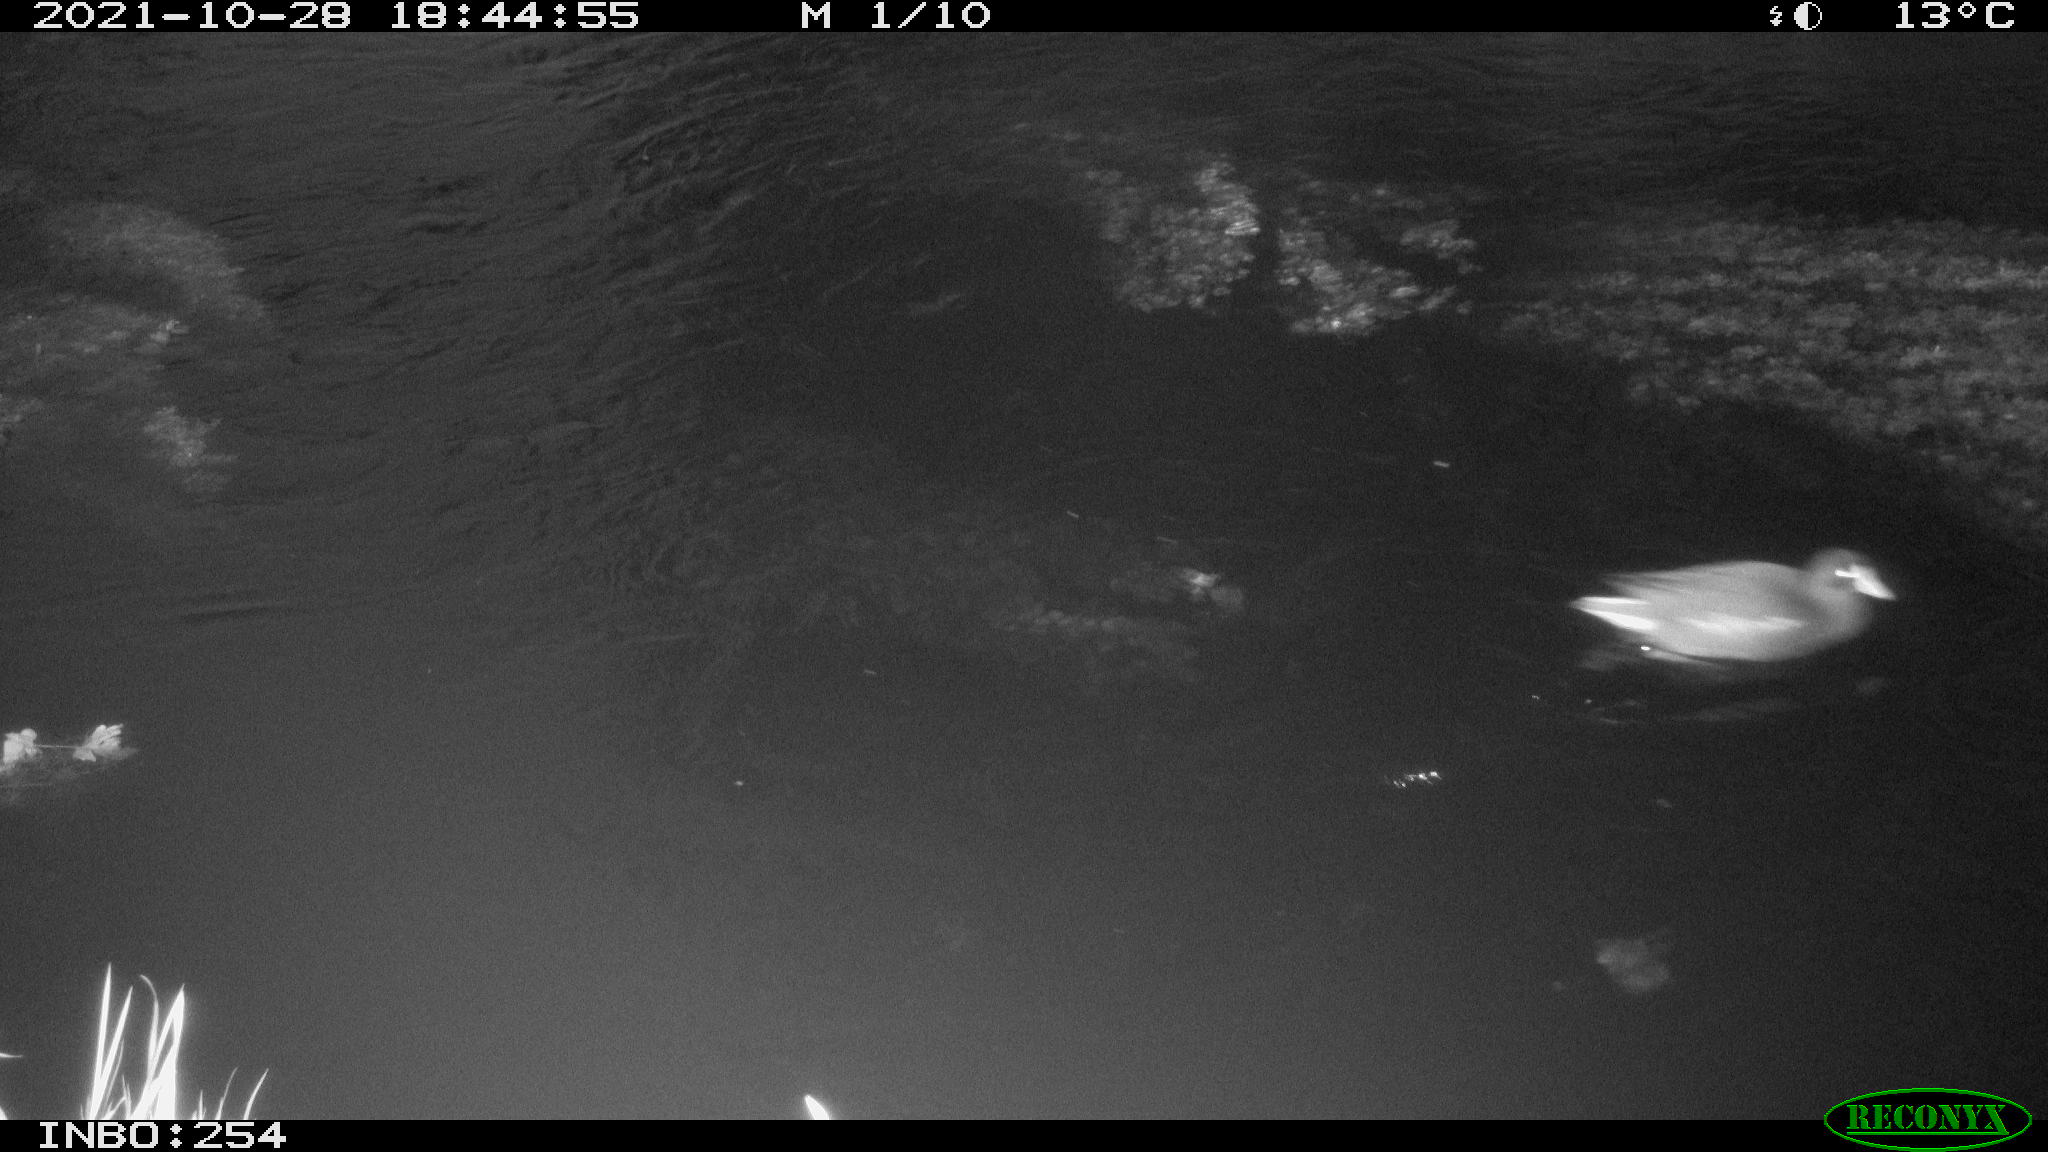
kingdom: Animalia
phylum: Chordata
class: Aves
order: Gruiformes
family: Rallidae
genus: Gallinula
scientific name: Gallinula chloropus
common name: Common moorhen
